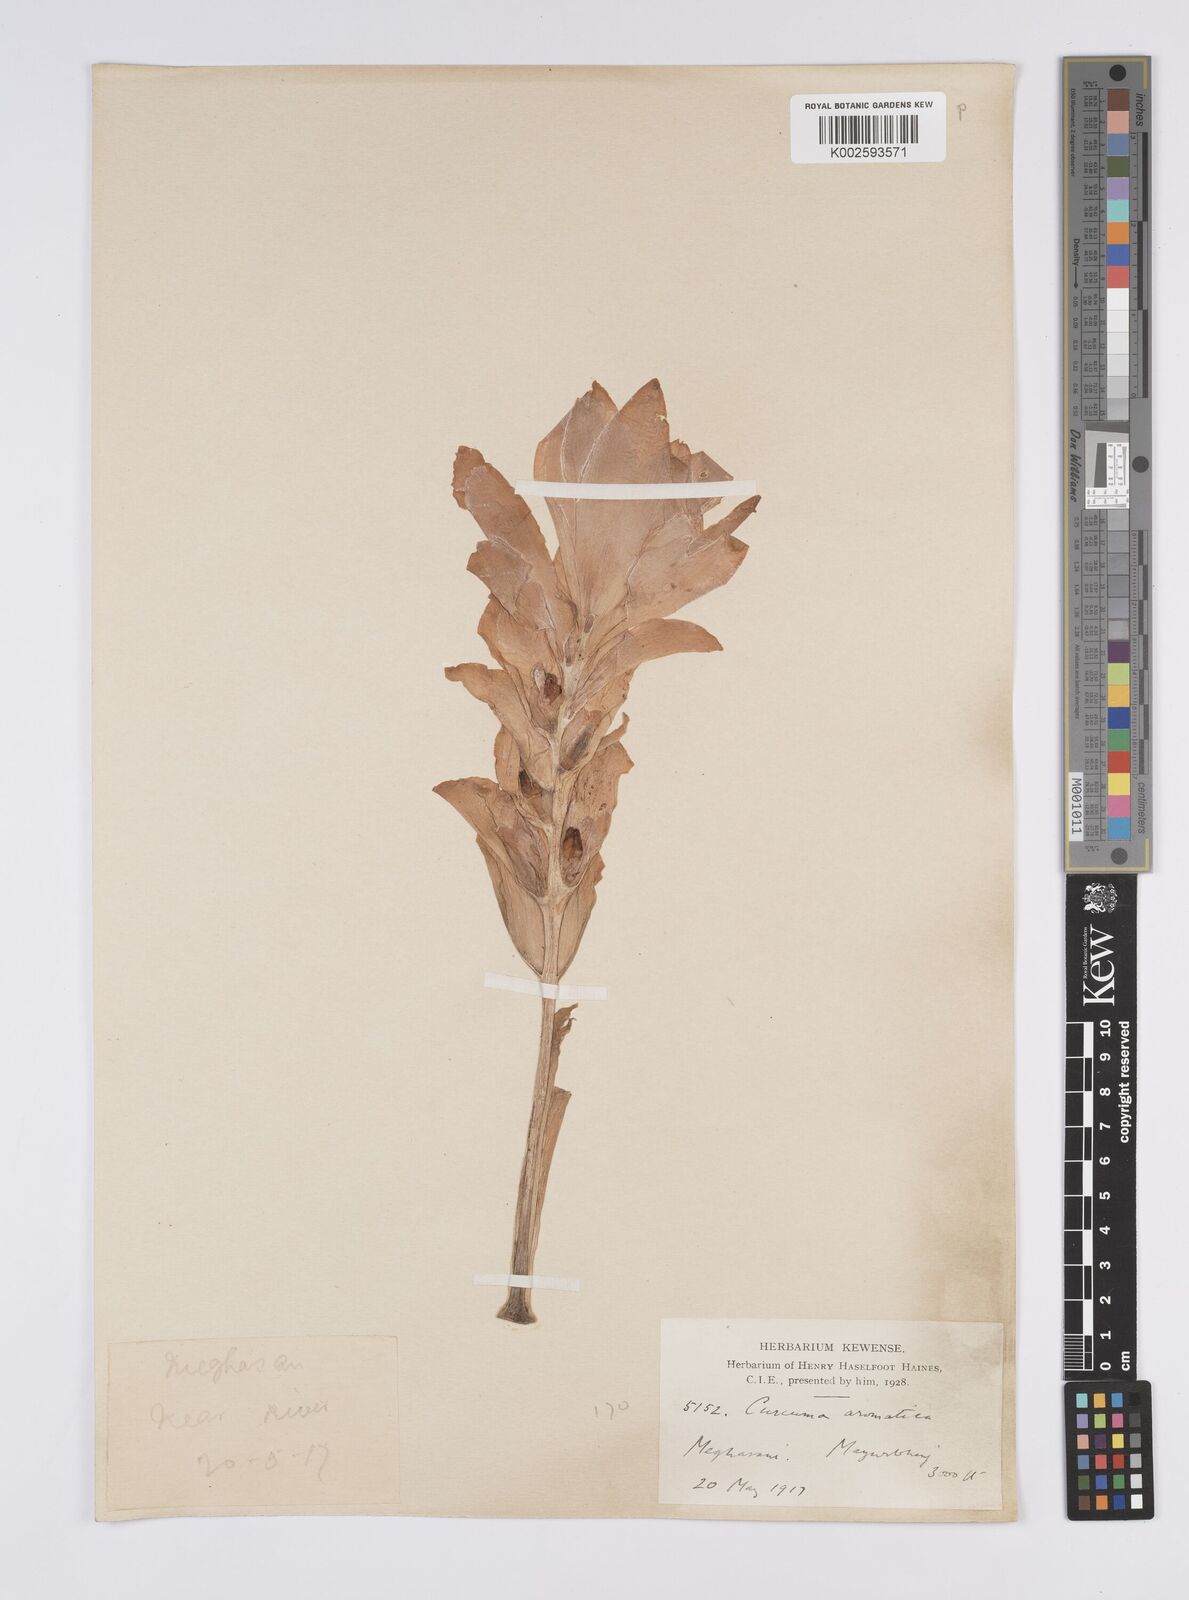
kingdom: Plantae
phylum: Tracheophyta
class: Liliopsida
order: Zingiberales
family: Zingiberaceae
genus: Curcuma
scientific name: Curcuma aromatica
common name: Wild turmeric
